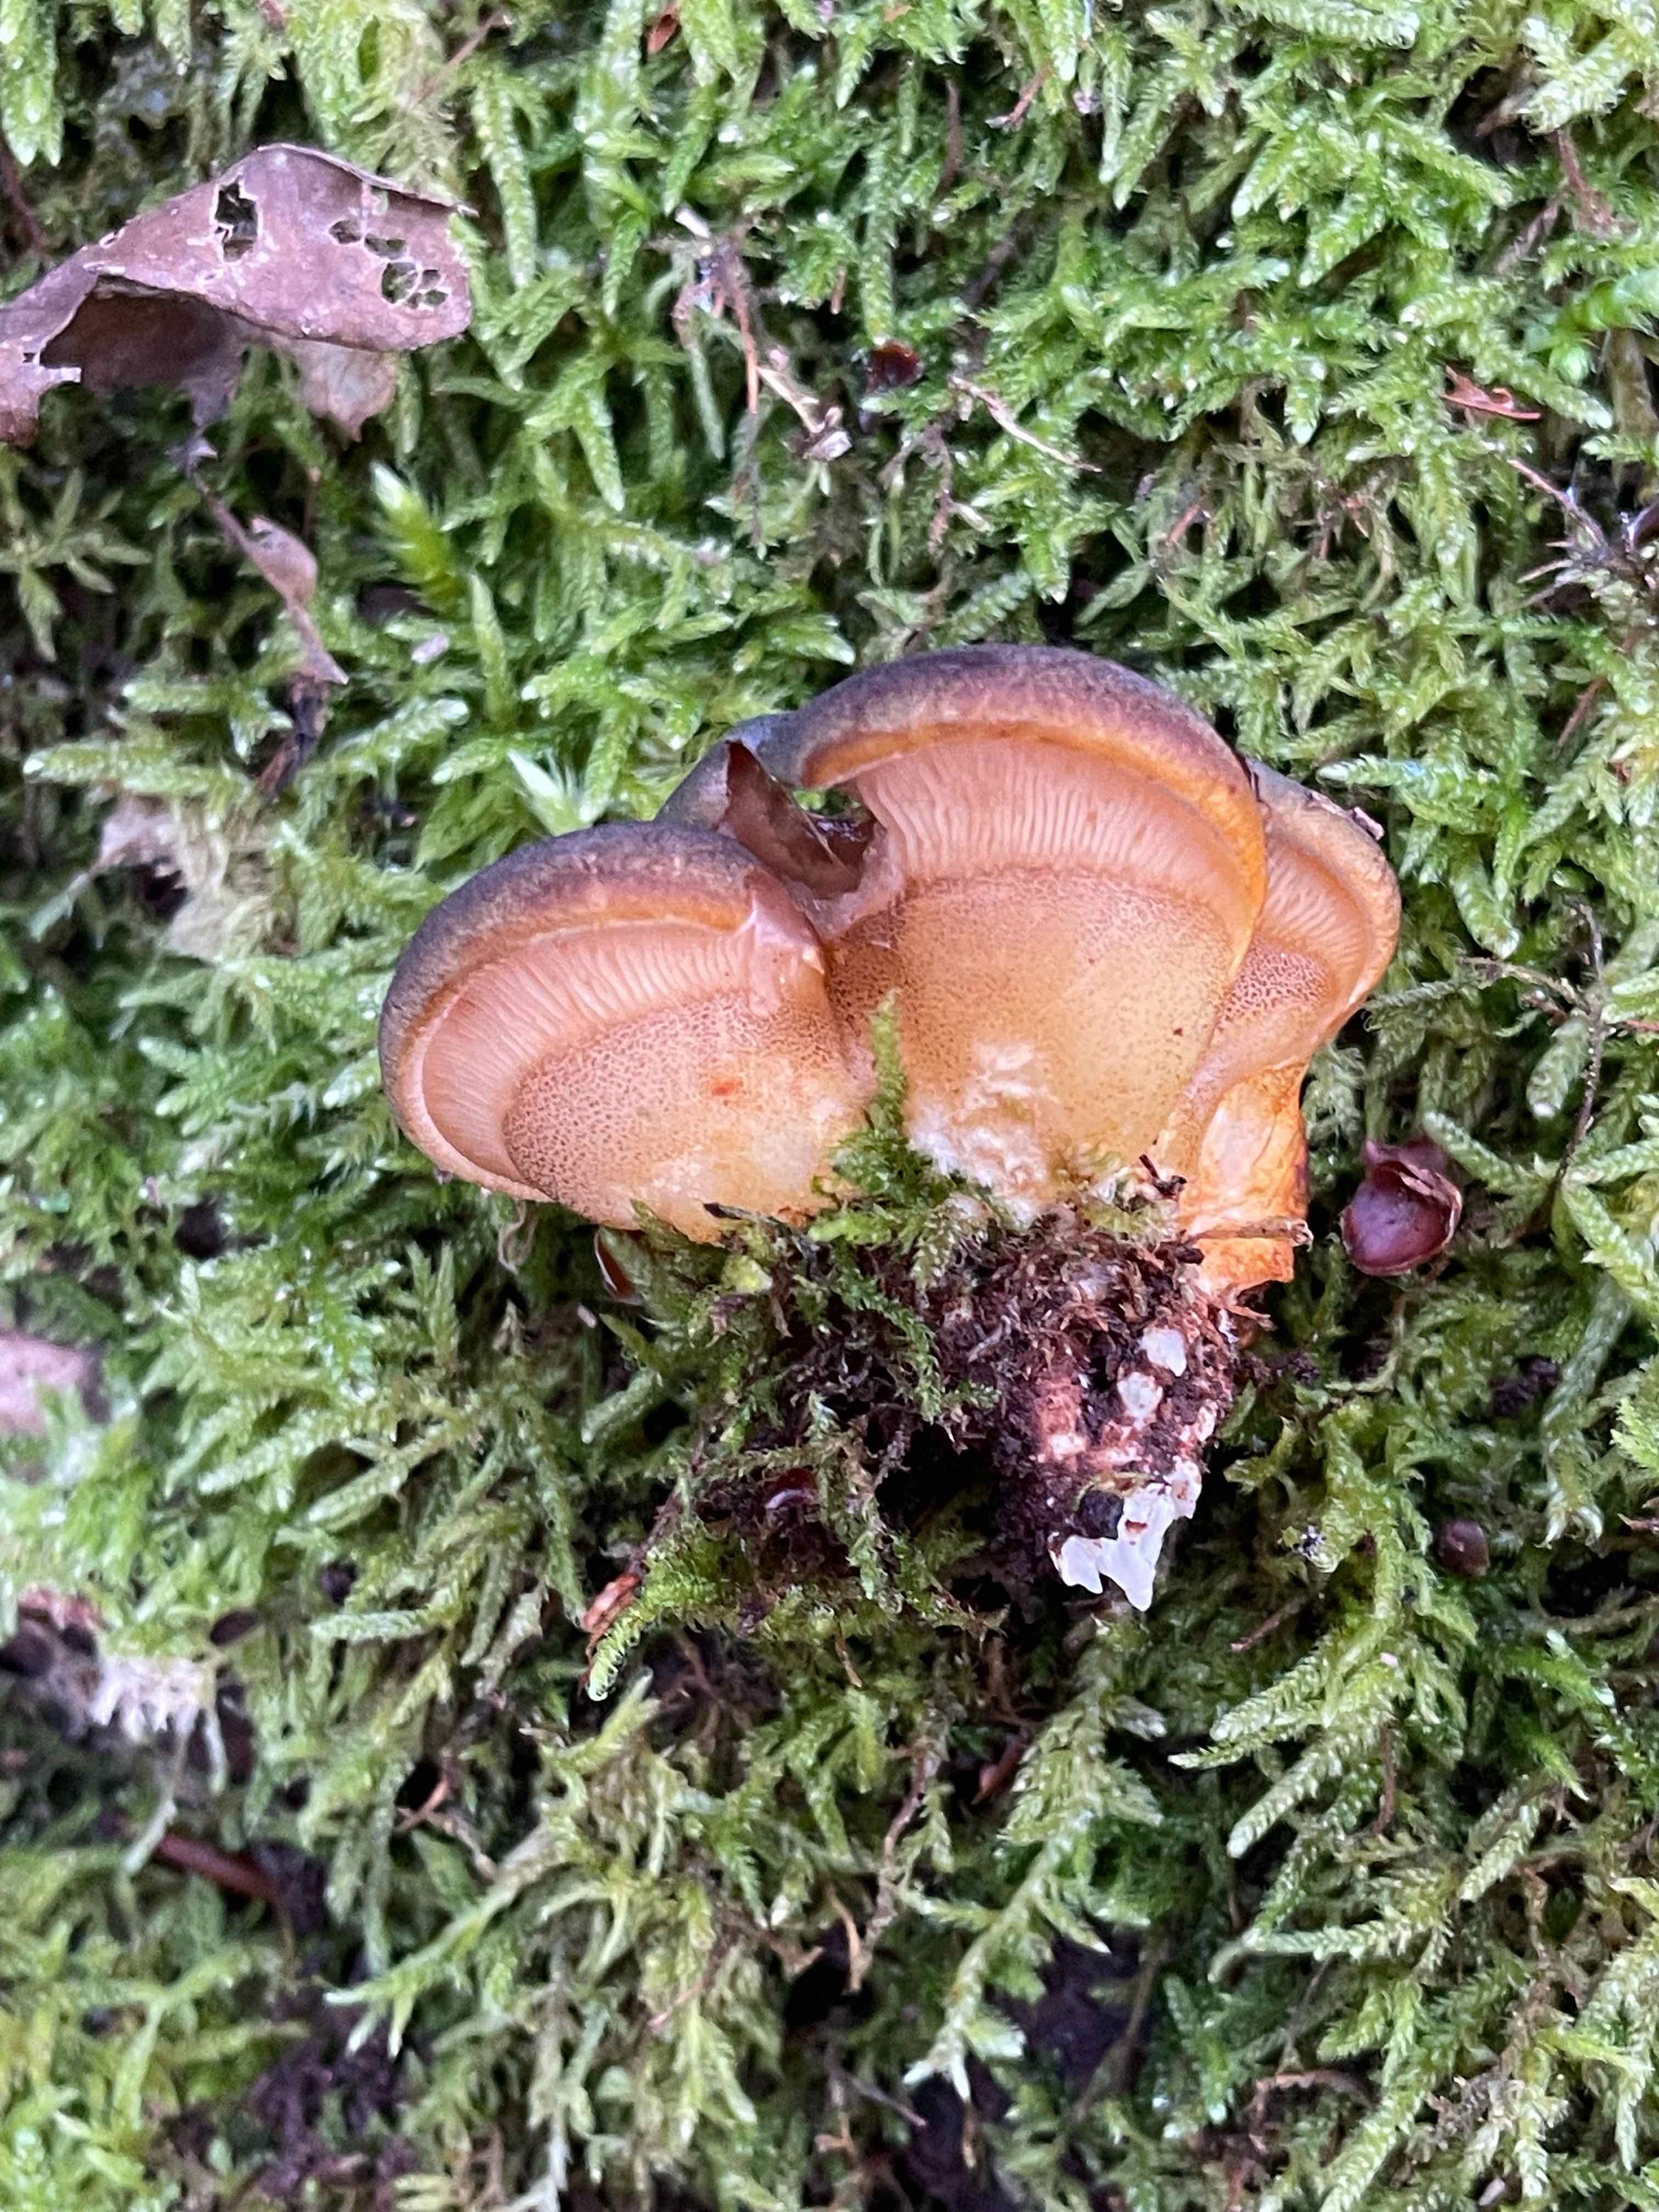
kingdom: Fungi
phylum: Basidiomycota
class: Agaricomycetes
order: Agaricales
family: Sarcomyxaceae
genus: Sarcomyxa
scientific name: Sarcomyxa serotina
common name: gummihat
